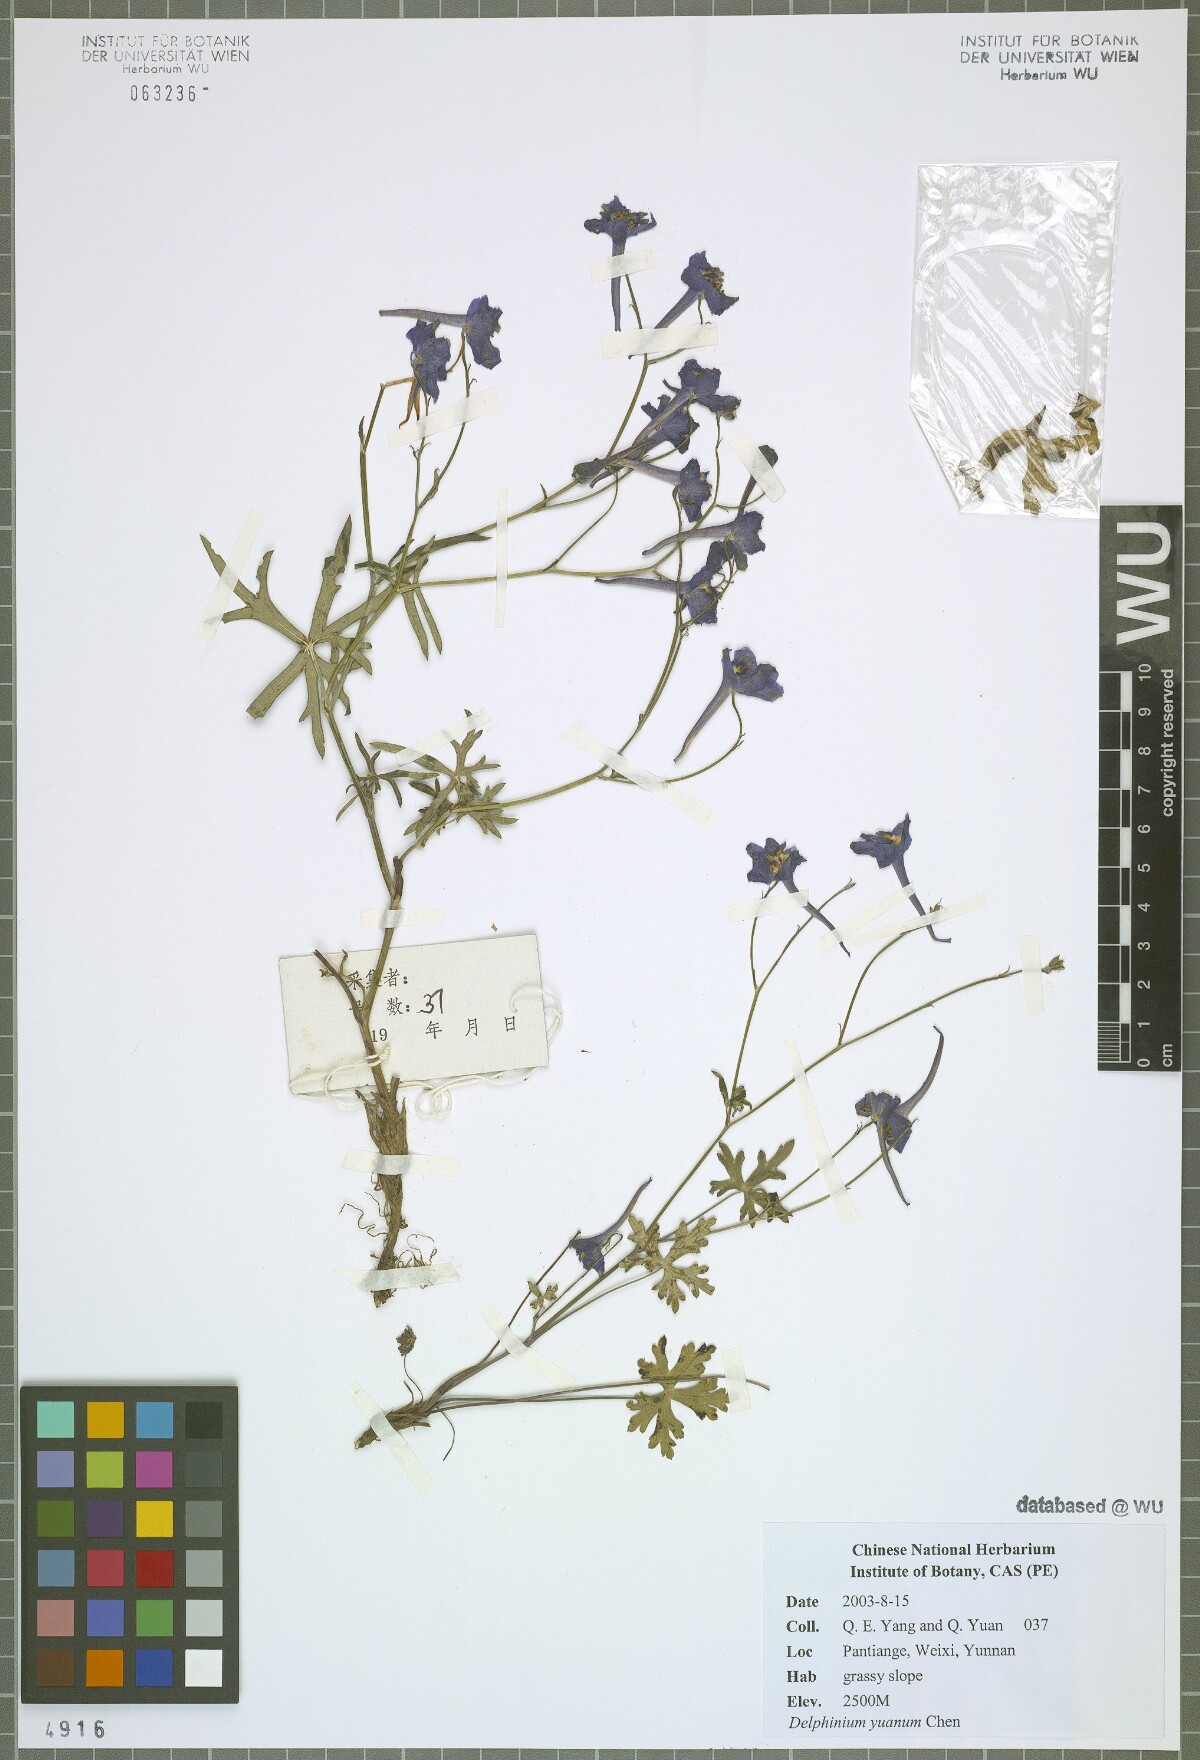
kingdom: Plantae
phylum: Tracheophyta
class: Magnoliopsida
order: Ranunculales
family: Ranunculaceae
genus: Delphinium
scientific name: Delphinium yuanum
